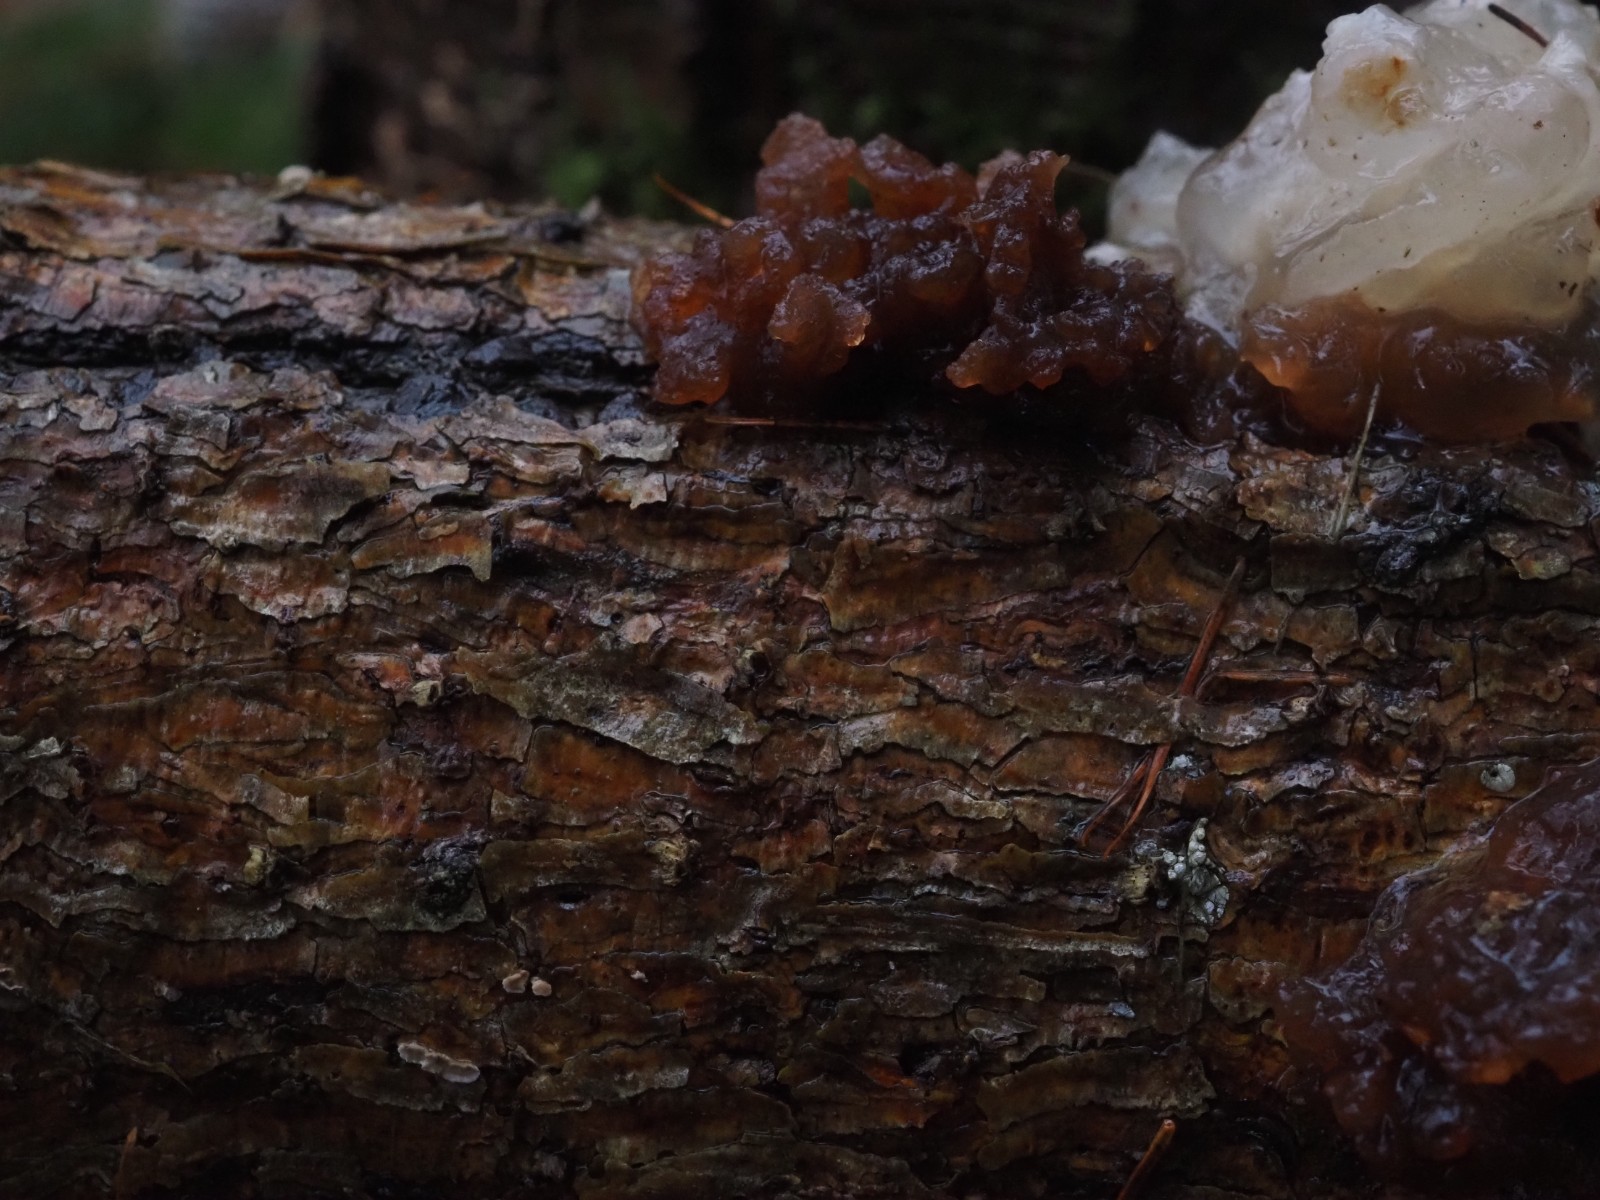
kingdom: Fungi
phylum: Basidiomycota
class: Tremellomycetes
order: Tremellales
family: Tremellaceae
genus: Phaeotremella
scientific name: Phaeotremella foliacea
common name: brun bævresvamp
